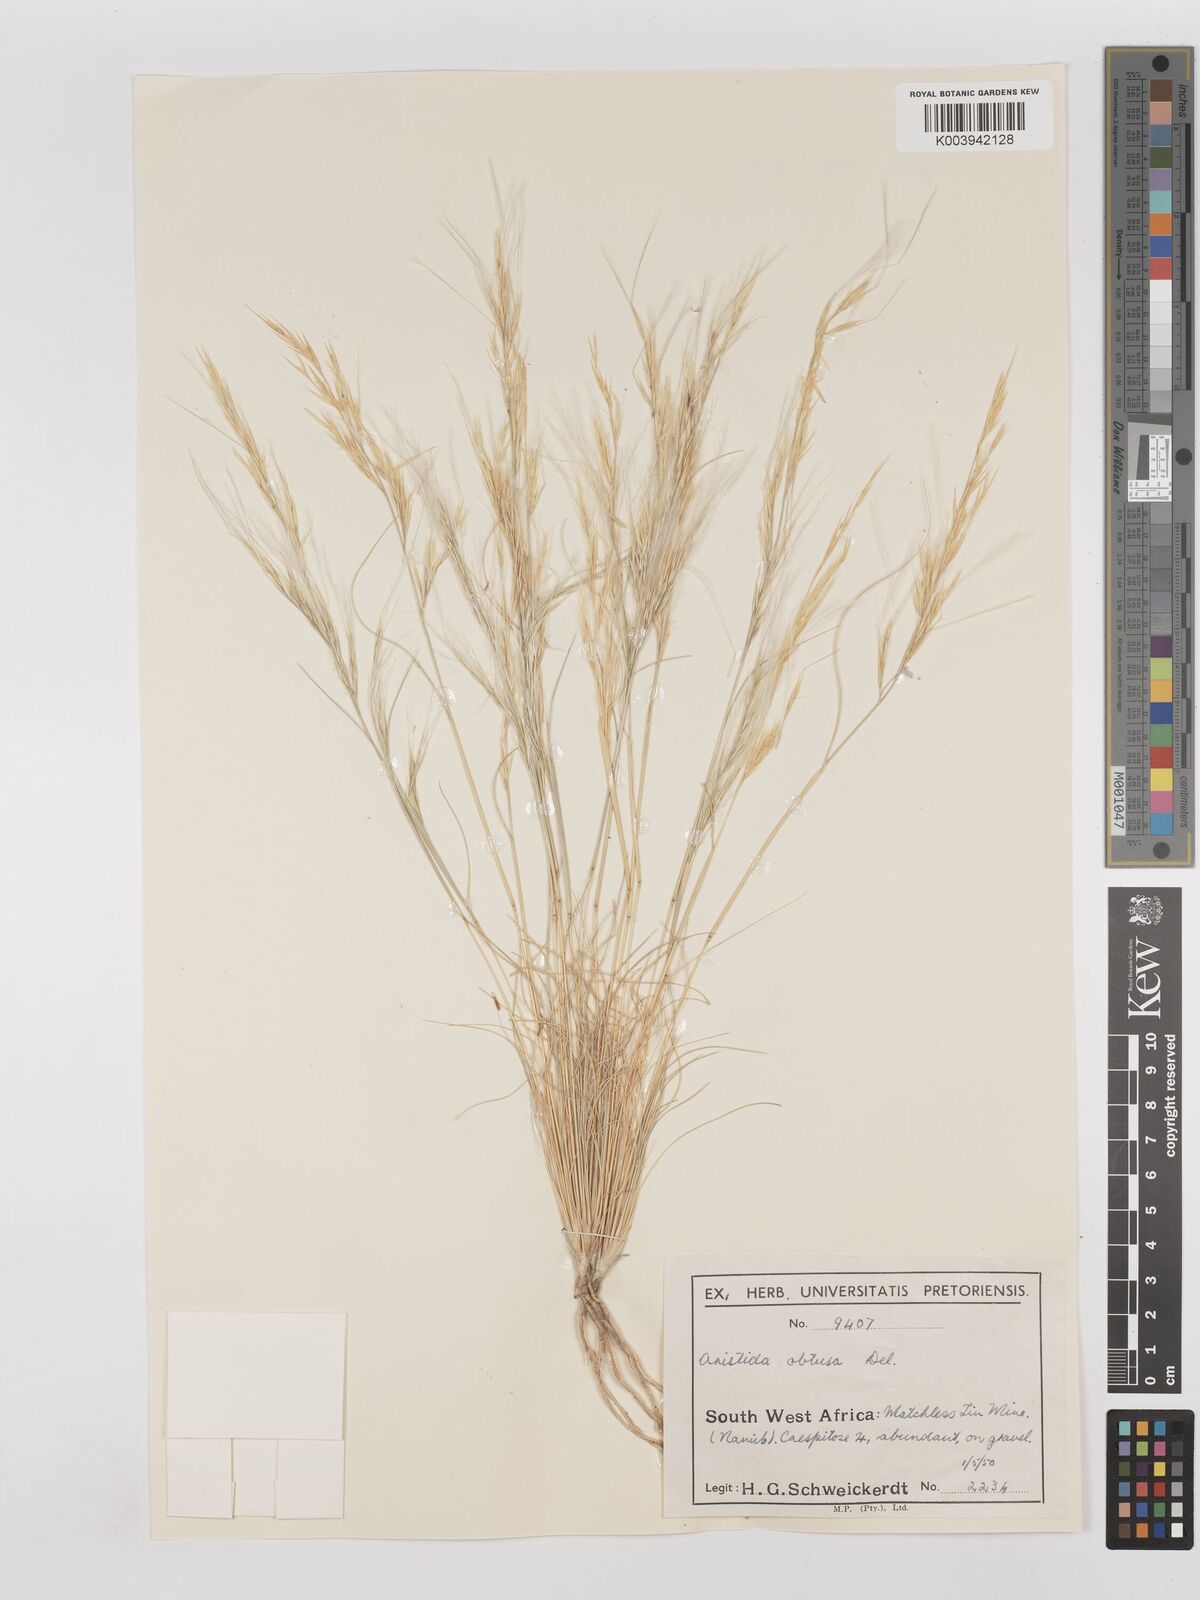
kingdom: Plantae
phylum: Tracheophyta
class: Liliopsida
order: Poales
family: Poaceae
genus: Stipagrostis
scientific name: Stipagrostis obtusa
